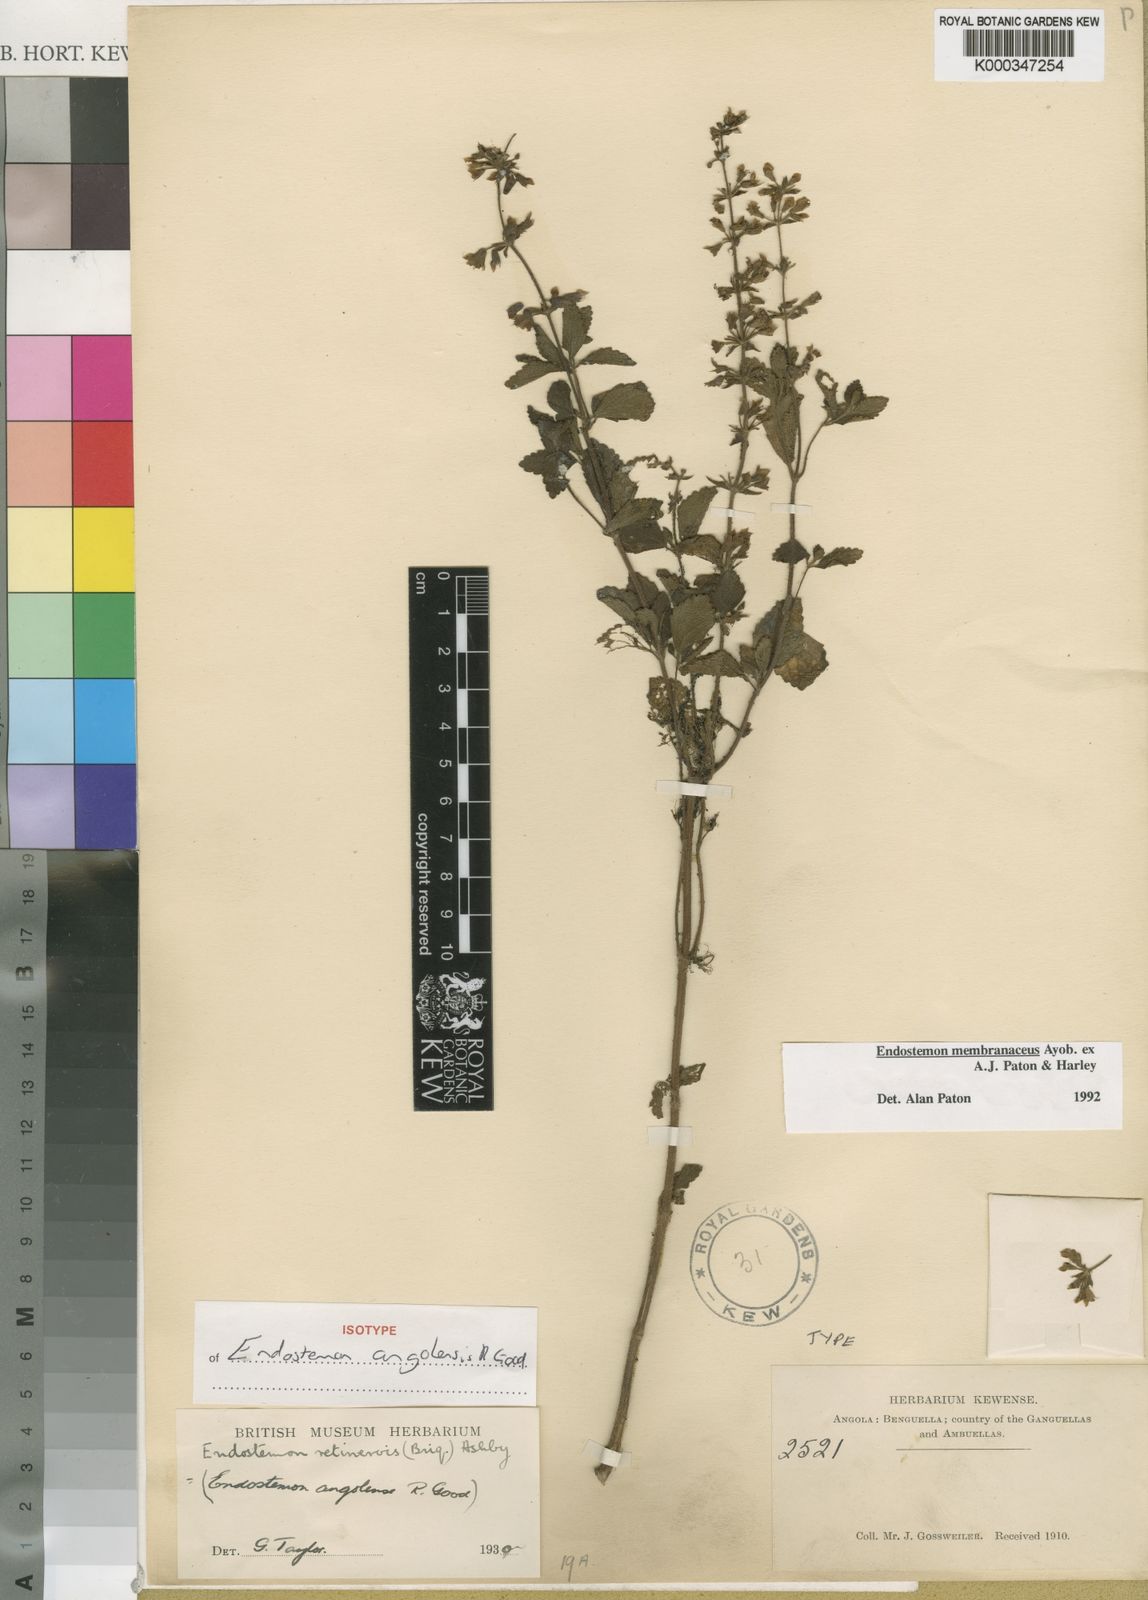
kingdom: Plantae
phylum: Tracheophyta
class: Magnoliopsida
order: Lamiales
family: Lamiaceae
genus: Endostemon
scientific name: Endostemon membranaceus
